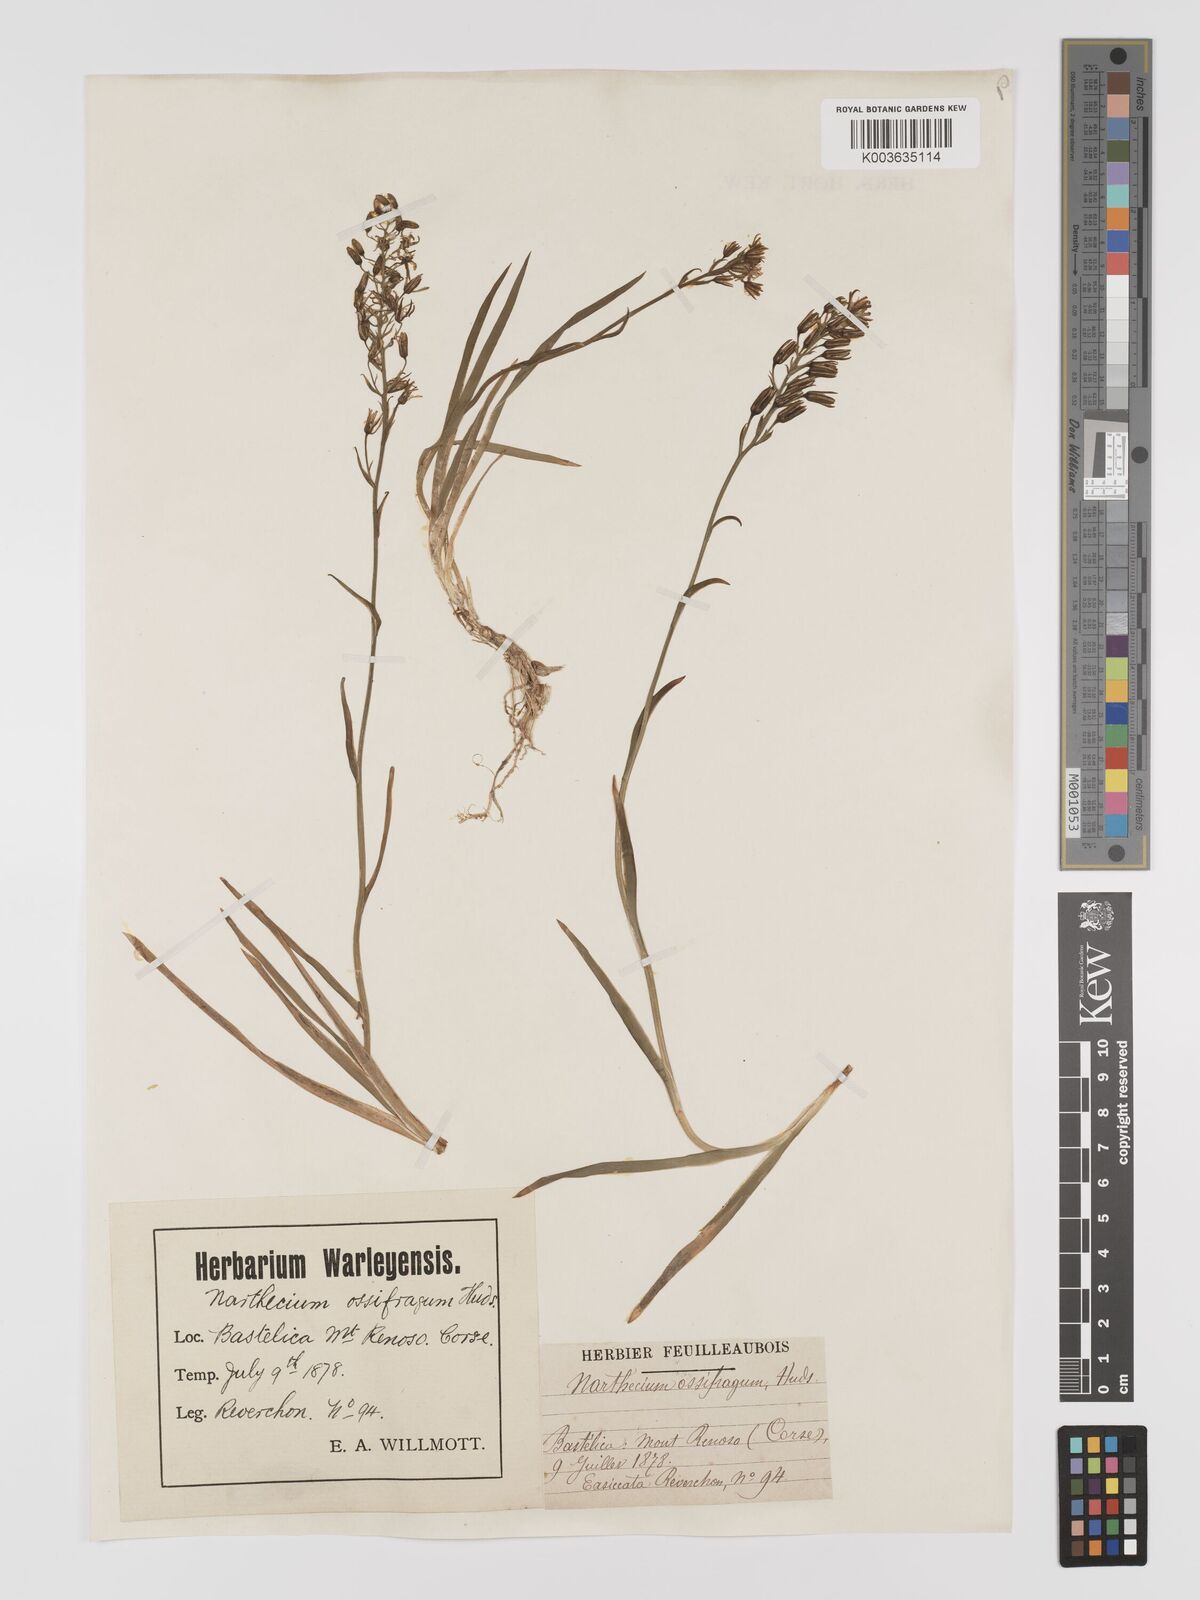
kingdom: Plantae
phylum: Tracheophyta
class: Liliopsida
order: Dioscoreales
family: Nartheciaceae
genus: Narthecium
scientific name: Narthecium reverchonii
